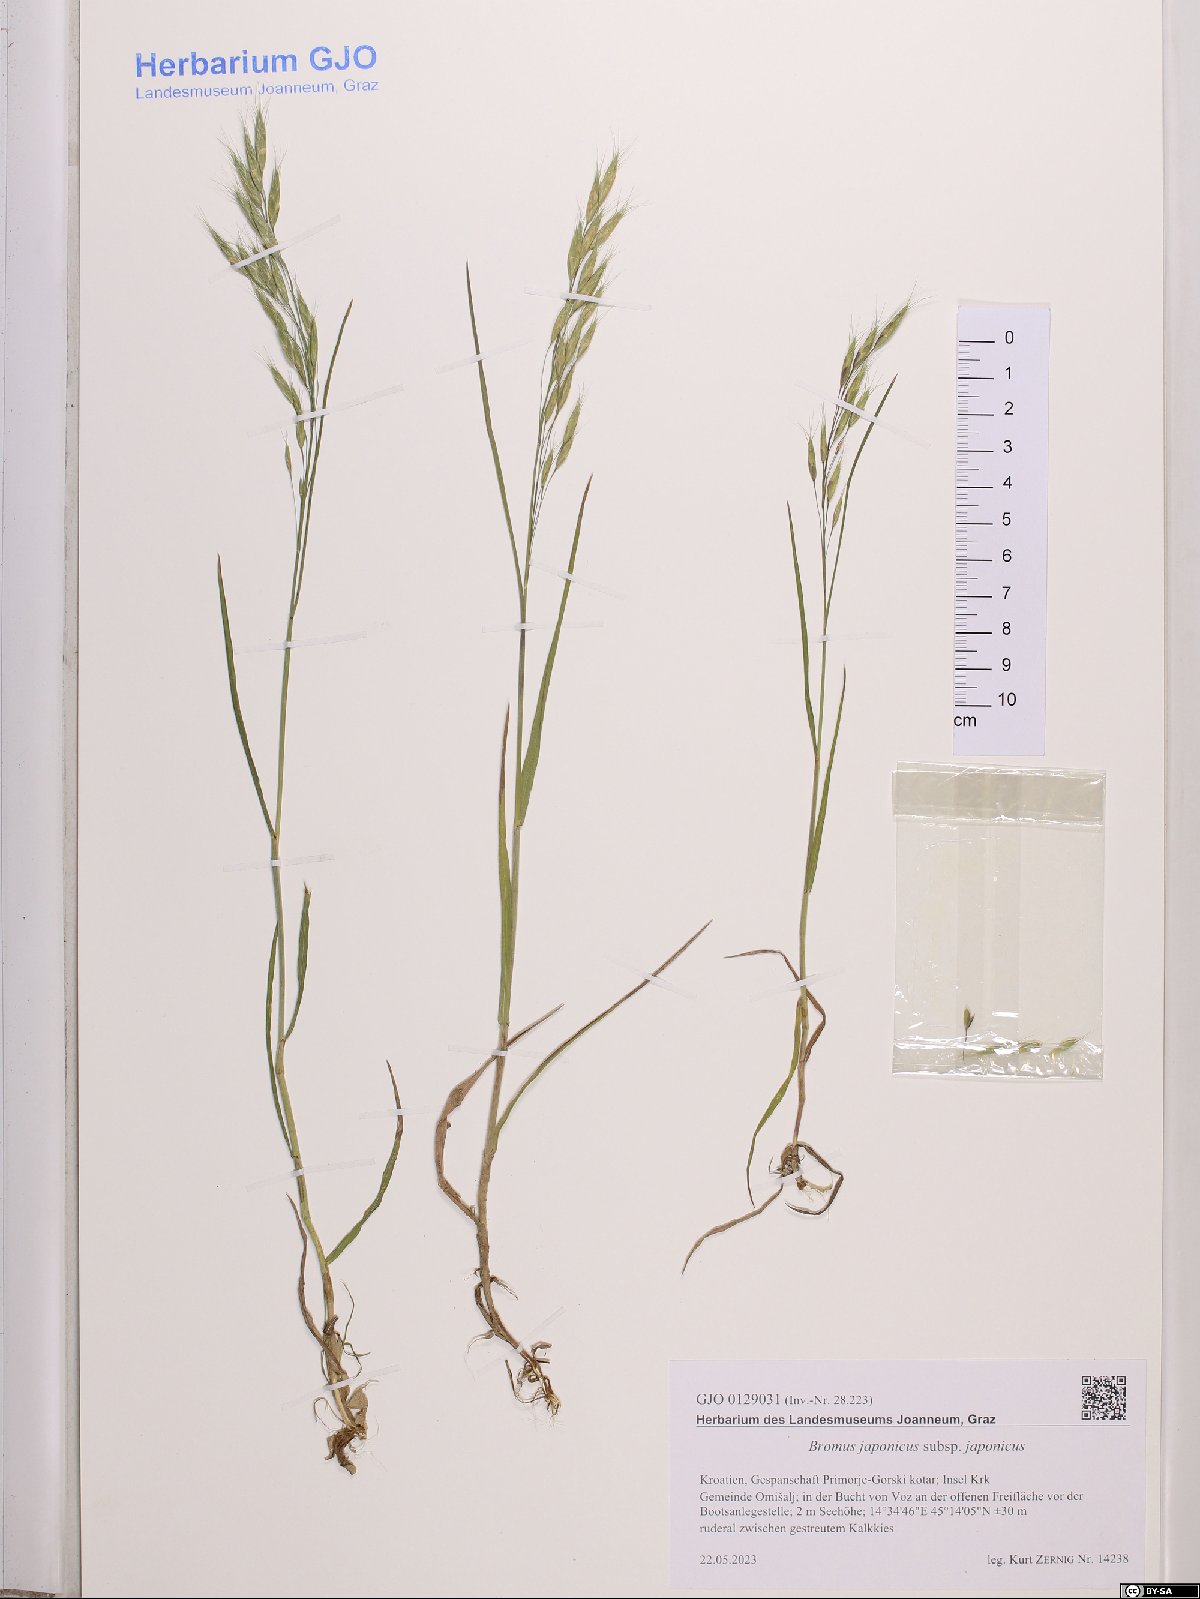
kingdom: Plantae
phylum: Tracheophyta
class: Liliopsida
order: Poales
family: Poaceae
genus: Bromus
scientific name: Bromus japonicus
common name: Japanese brome
